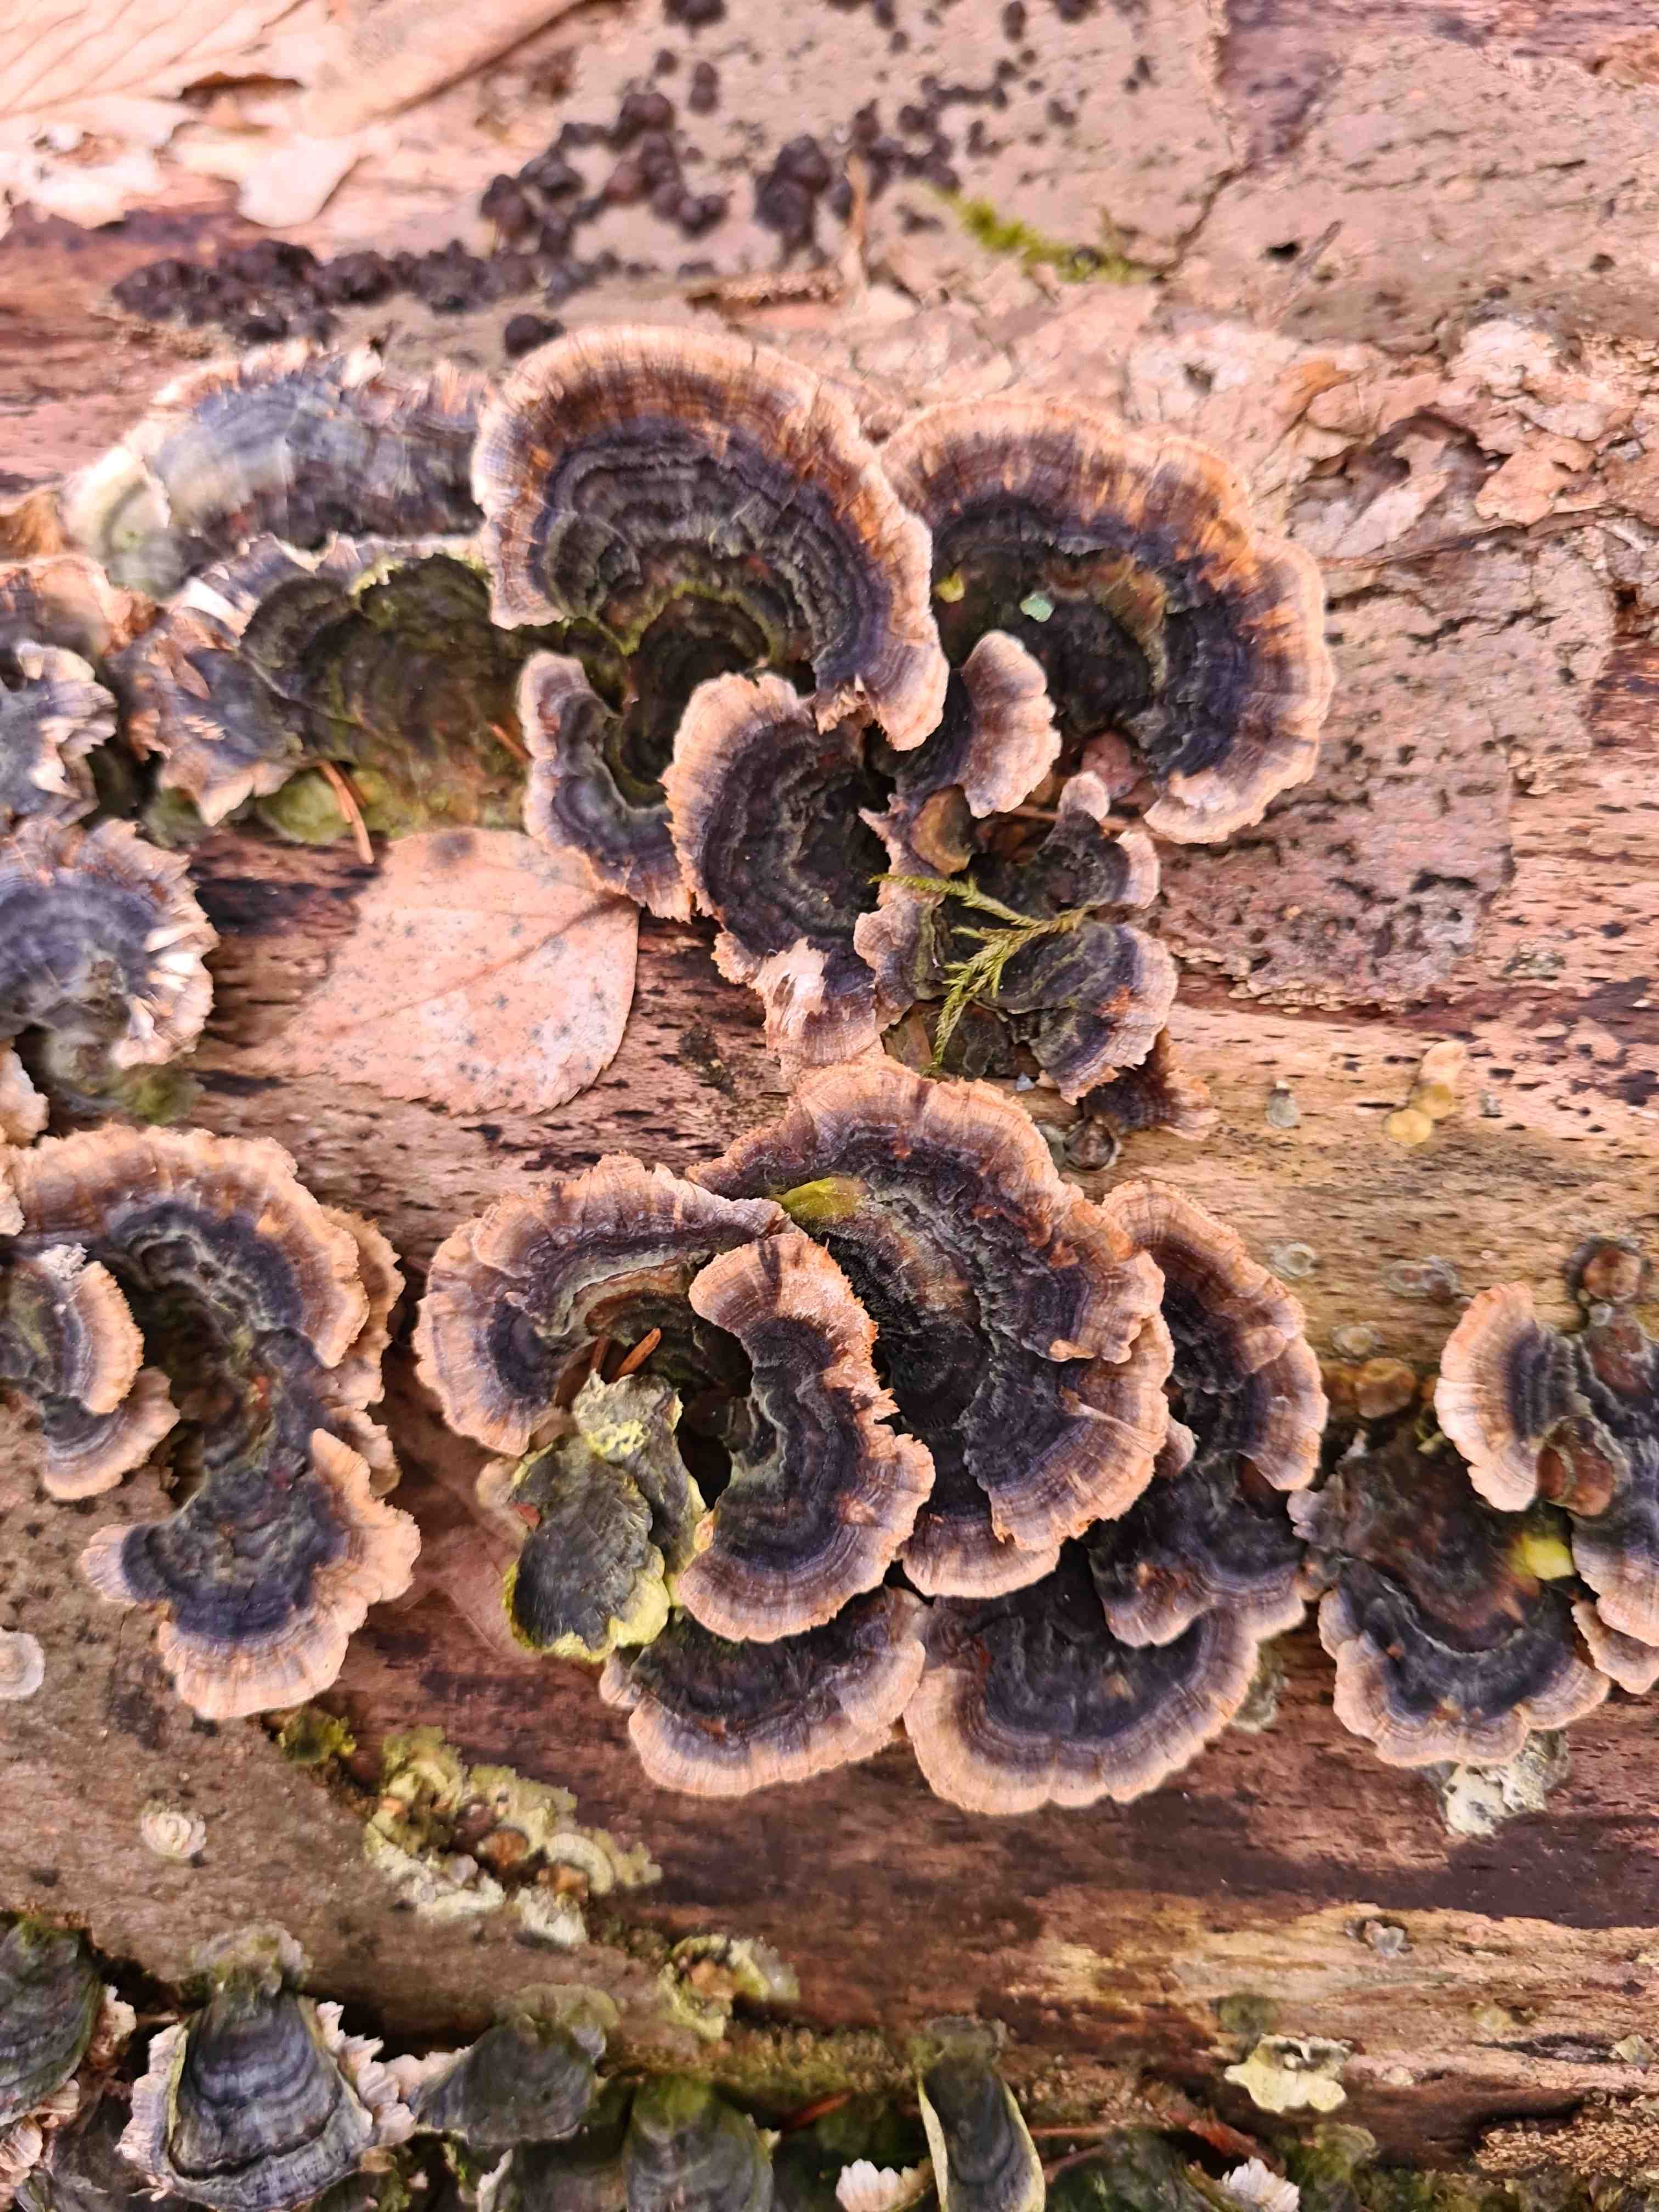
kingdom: Fungi
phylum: Basidiomycota
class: Agaricomycetes
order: Polyporales
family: Polyporaceae
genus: Trametes
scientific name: Trametes versicolor
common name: broget læderporesvamp
